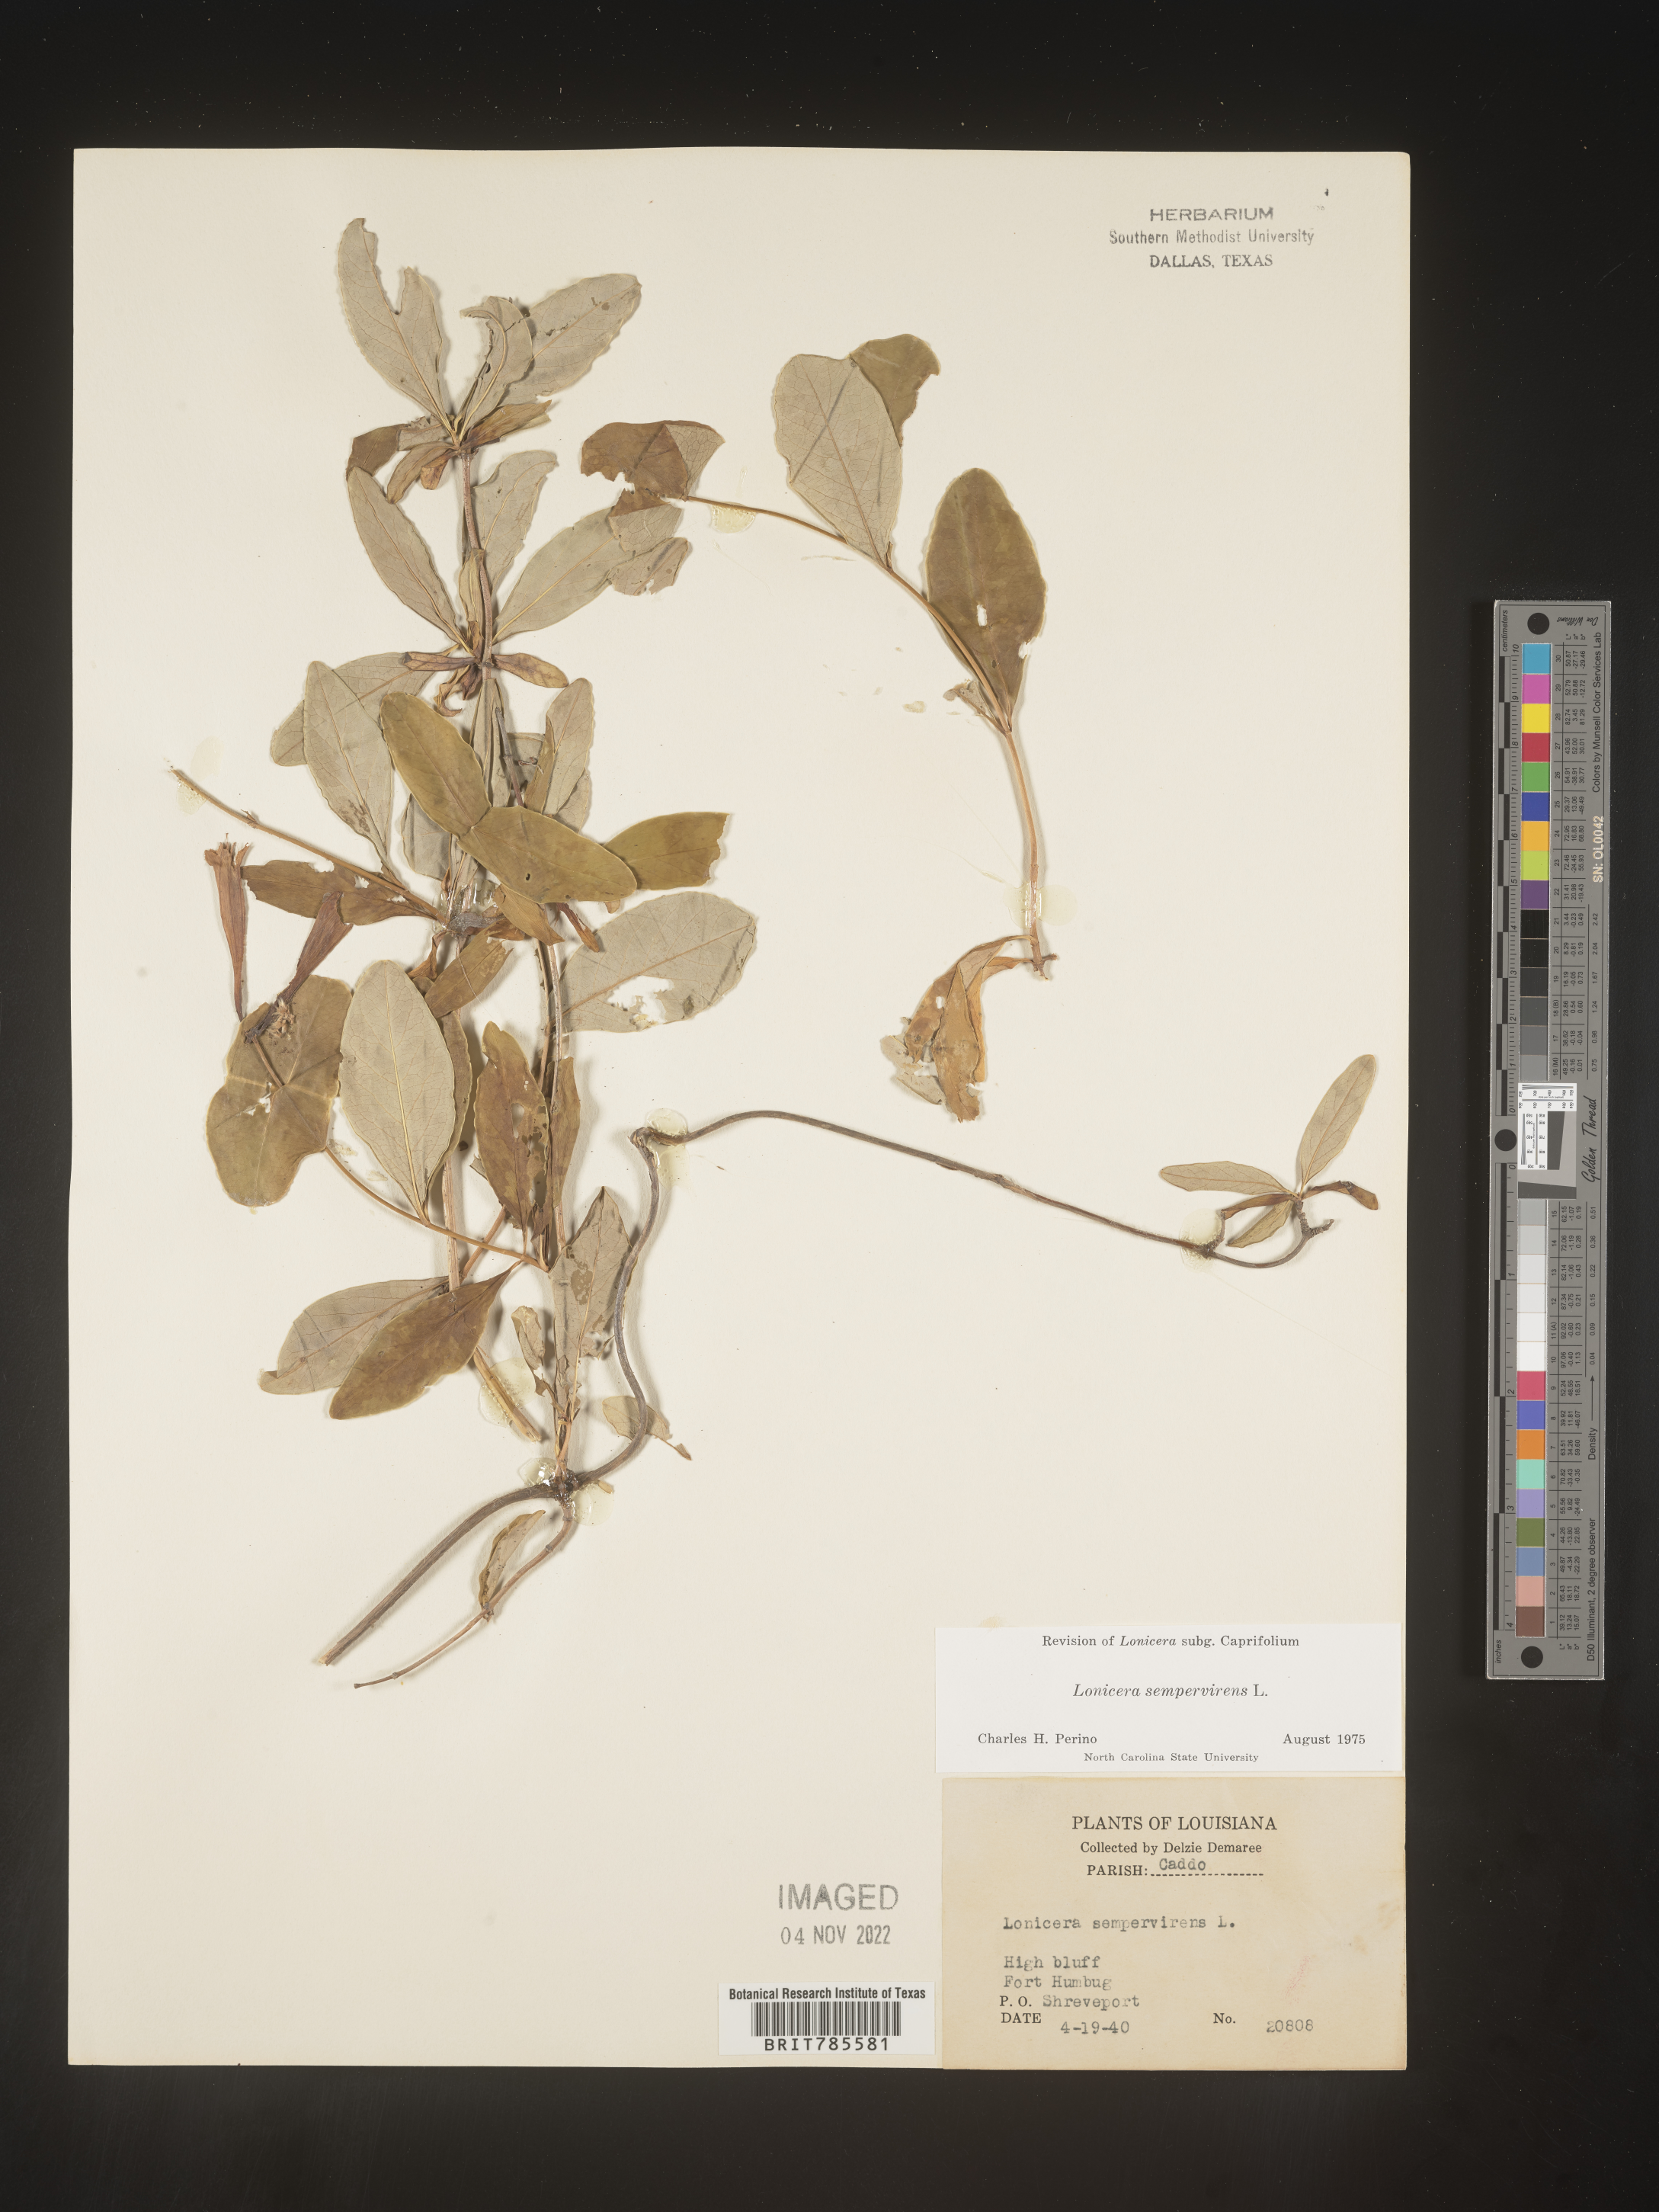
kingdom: Plantae
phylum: Tracheophyta
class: Magnoliopsida
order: Dipsacales
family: Caprifoliaceae
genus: Lonicera
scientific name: Lonicera sempervirens
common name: Coral honeysuckle
